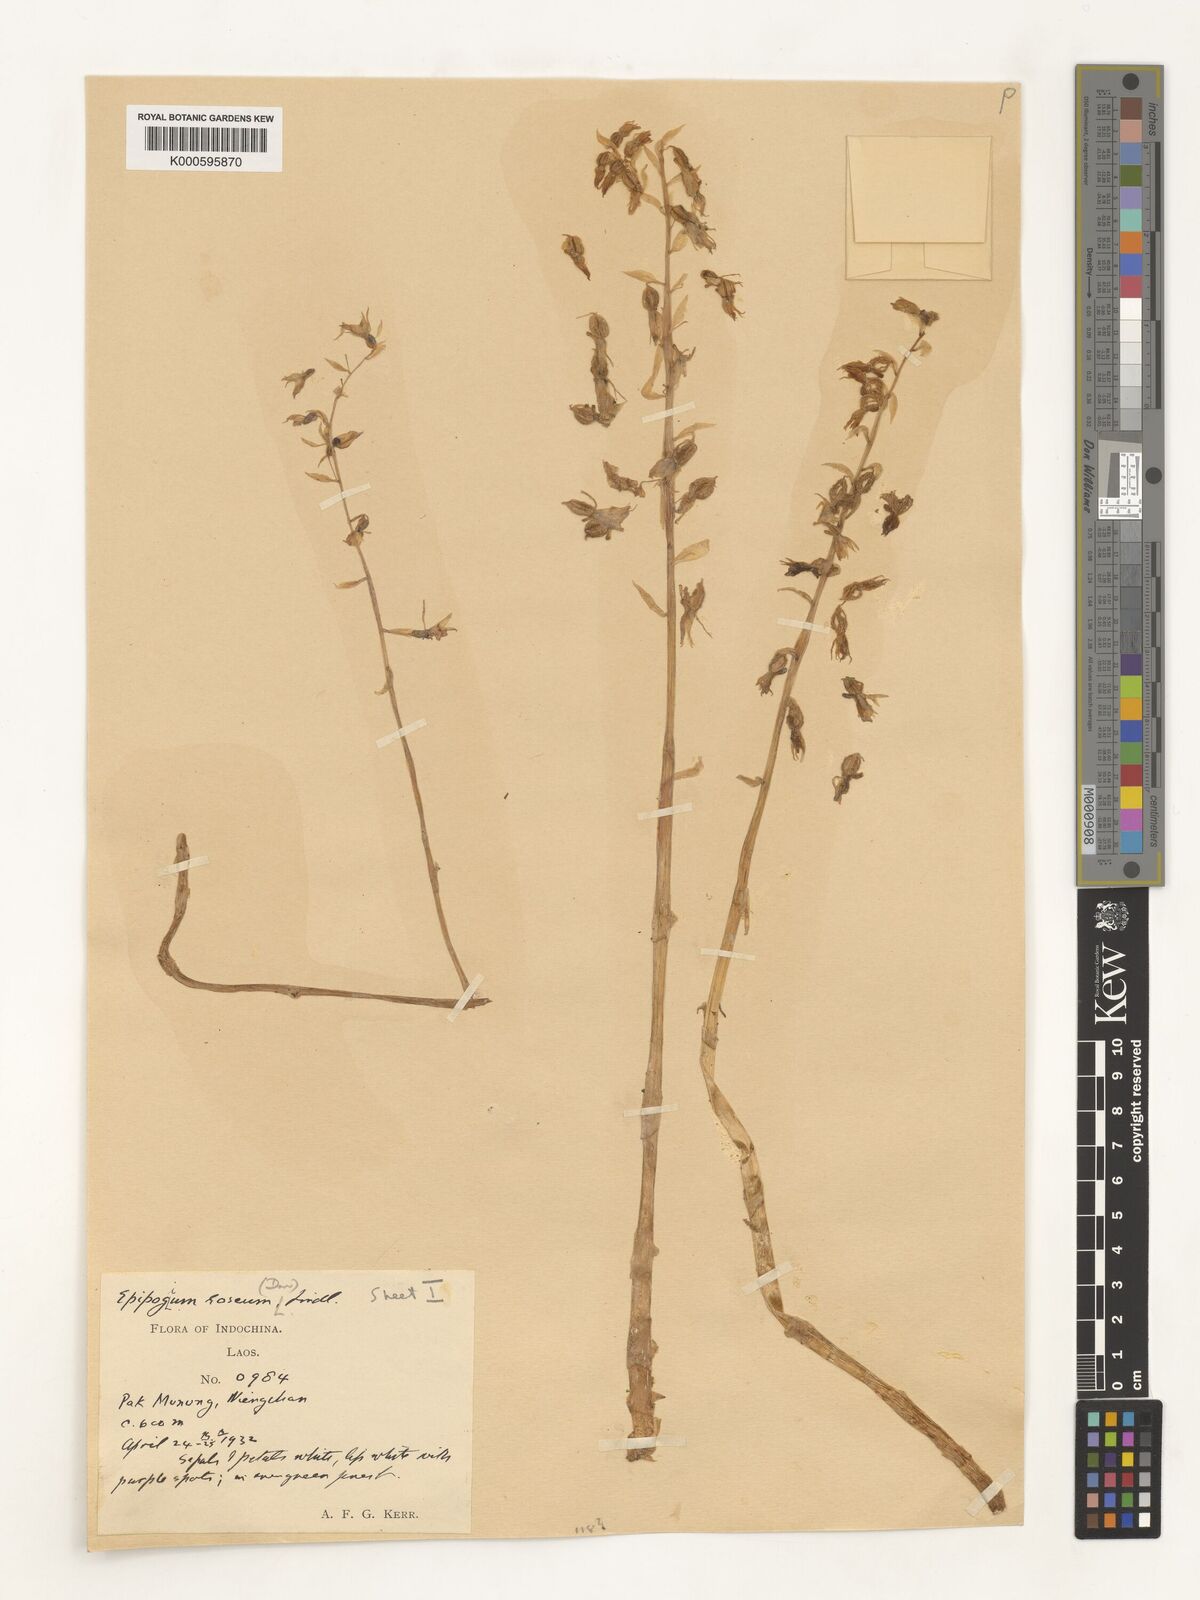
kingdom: Plantae
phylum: Tracheophyta
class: Liliopsida
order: Asparagales
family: Orchidaceae
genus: Epipogium
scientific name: Epipogium roseum
